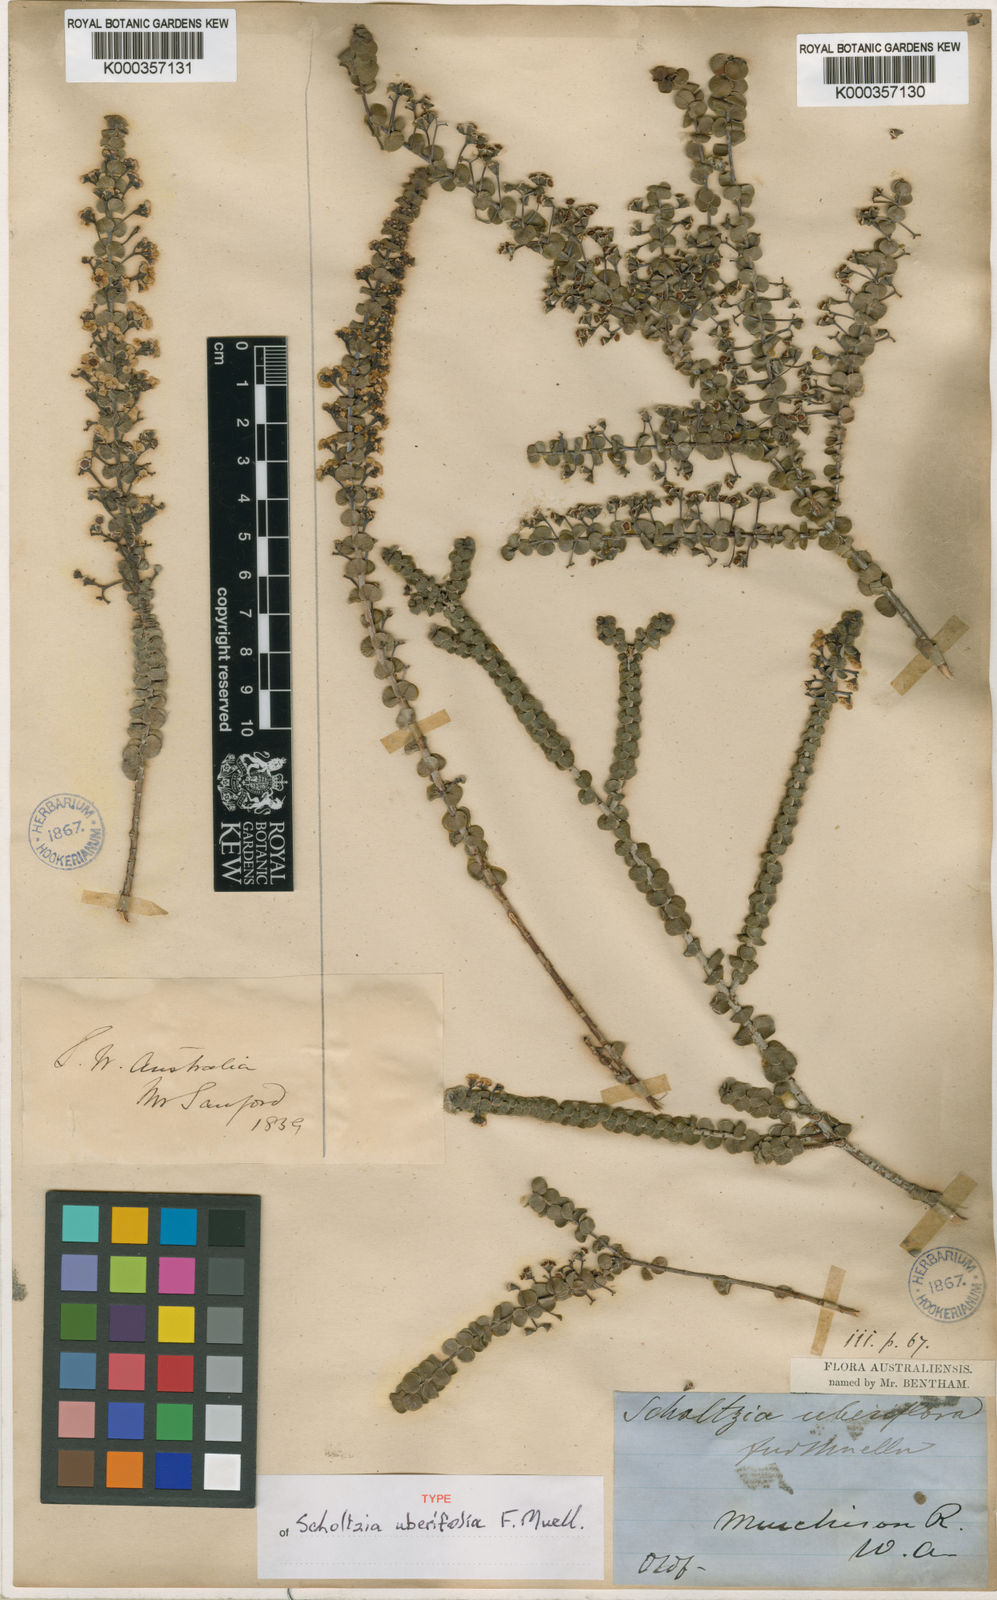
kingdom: Plantae
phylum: Tracheophyta
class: Magnoliopsida
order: Myrtales
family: Myrtaceae
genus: Scholtzia
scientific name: Scholtzia uberiflora
